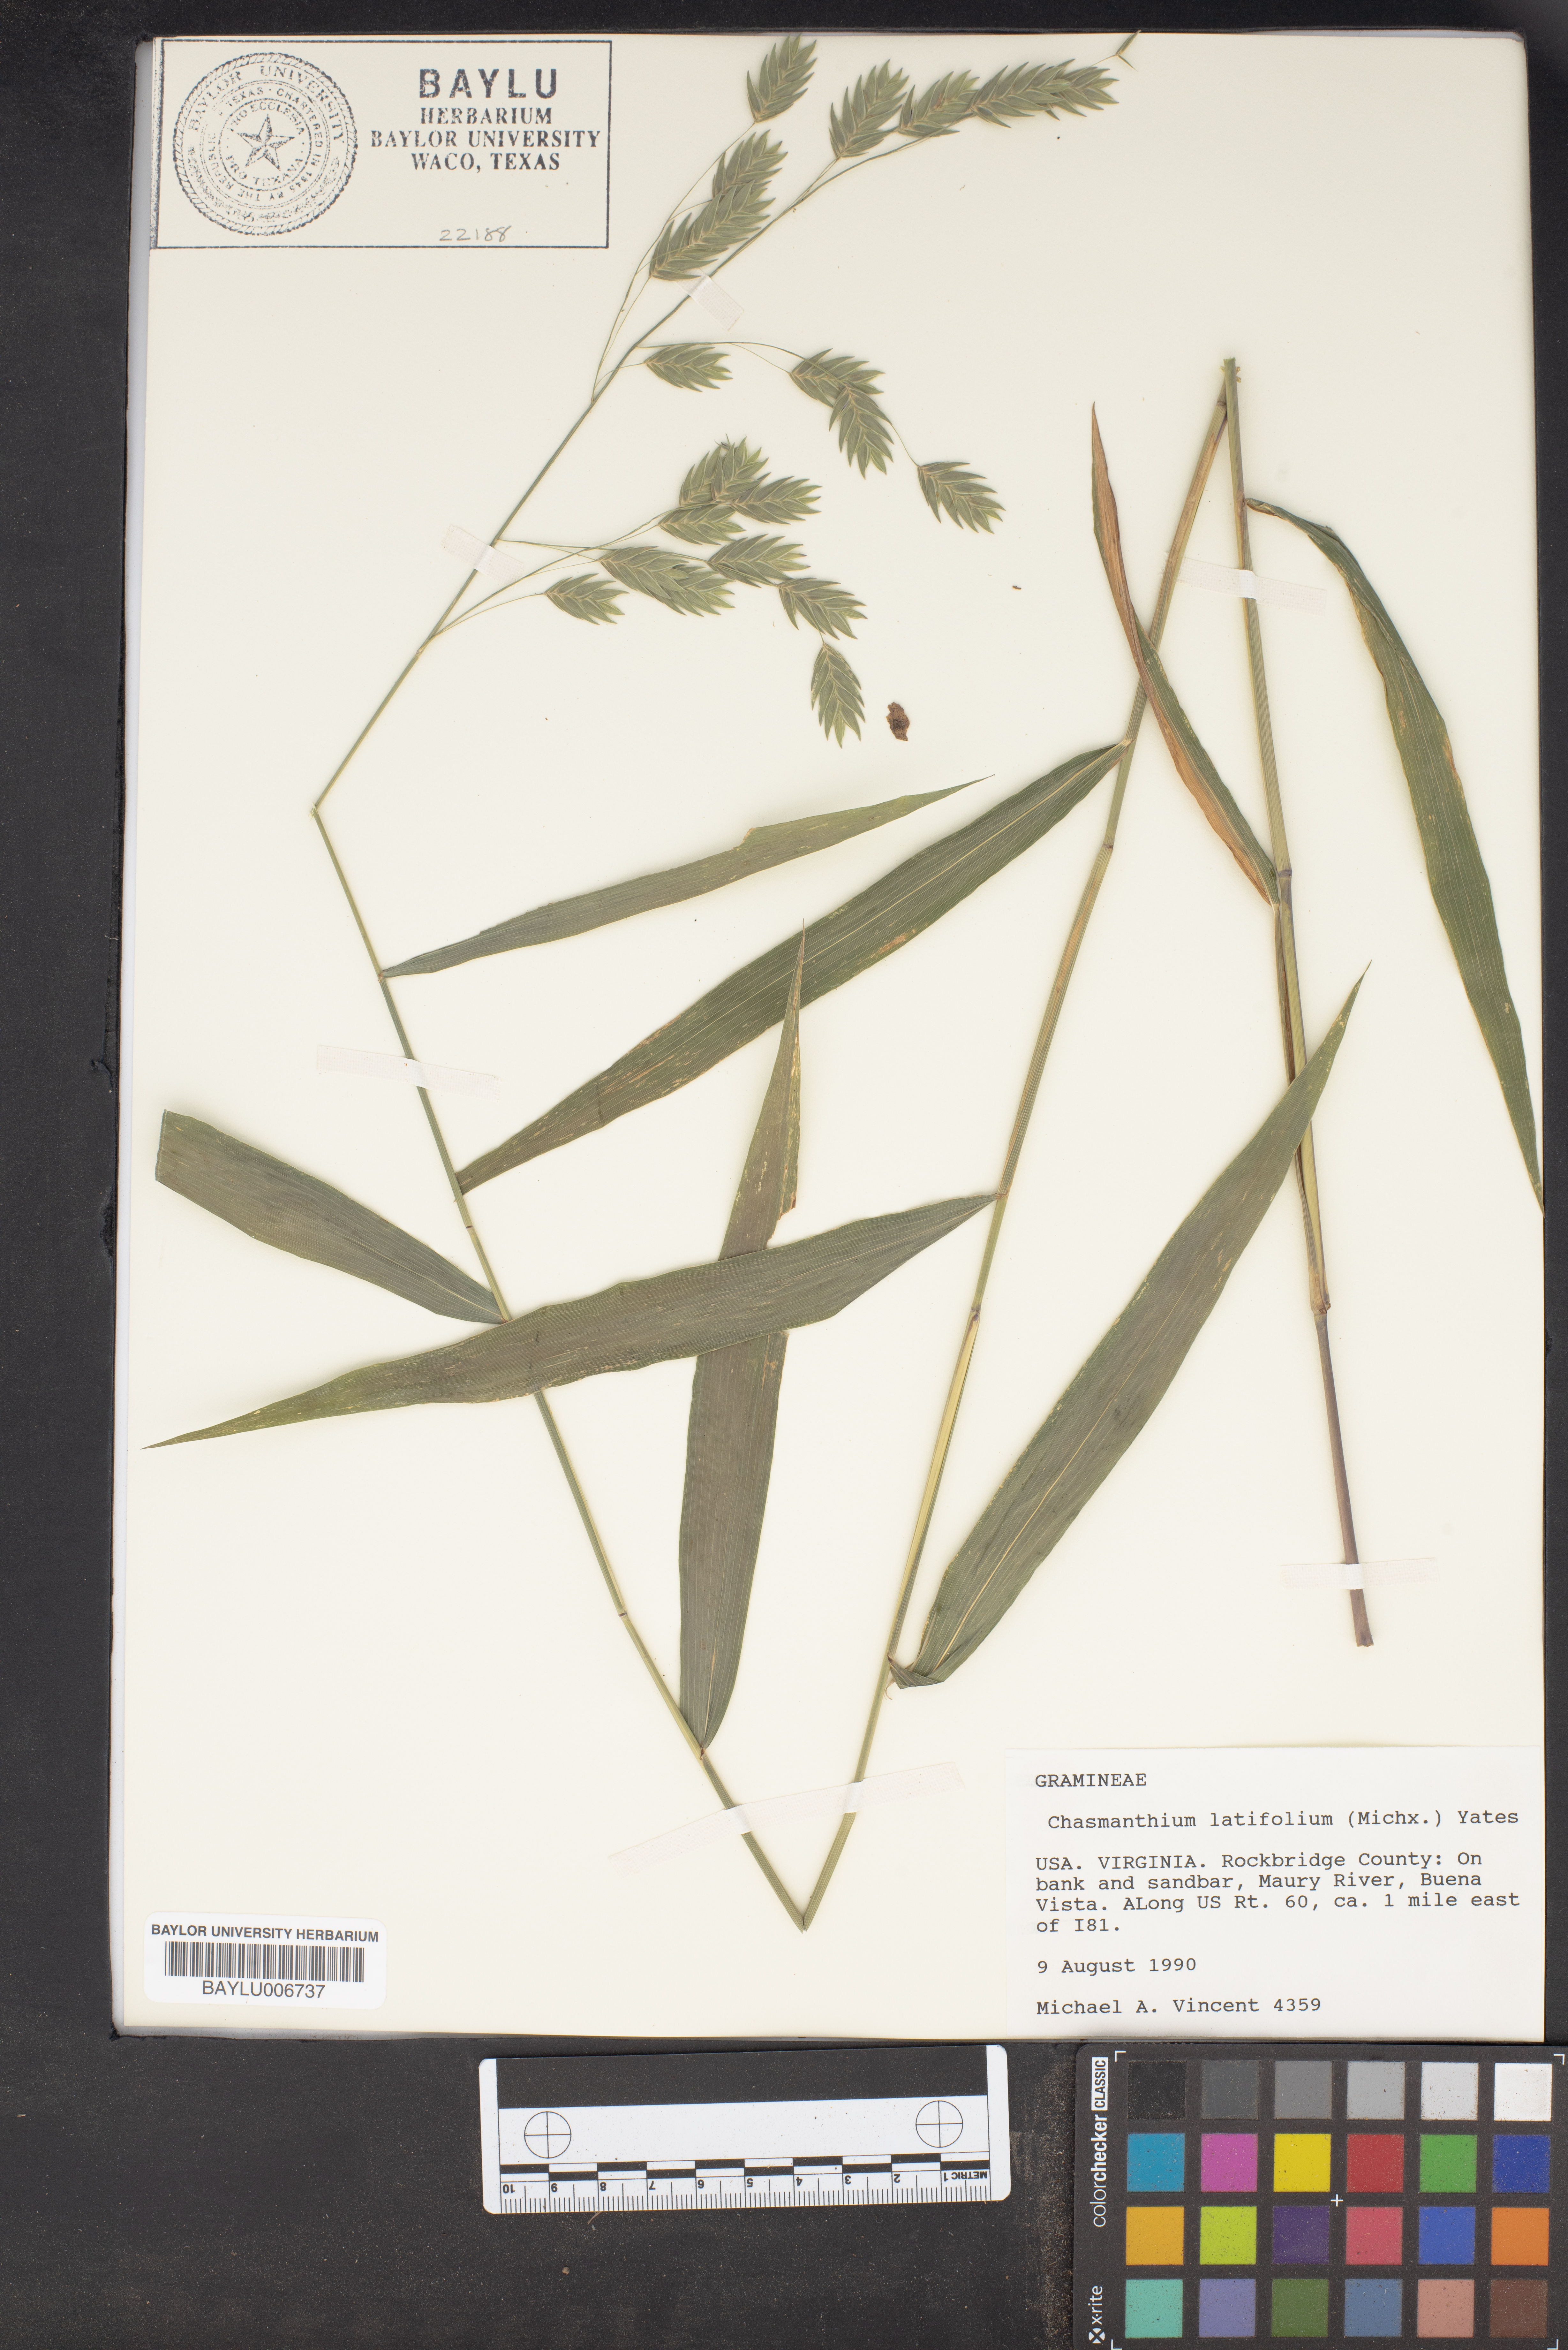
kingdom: Plantae
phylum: Tracheophyta
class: Liliopsida
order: Poales
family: Poaceae
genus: Chasmanthium
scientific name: Chasmanthium latifolium
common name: Broad-leaved chasmanthium
